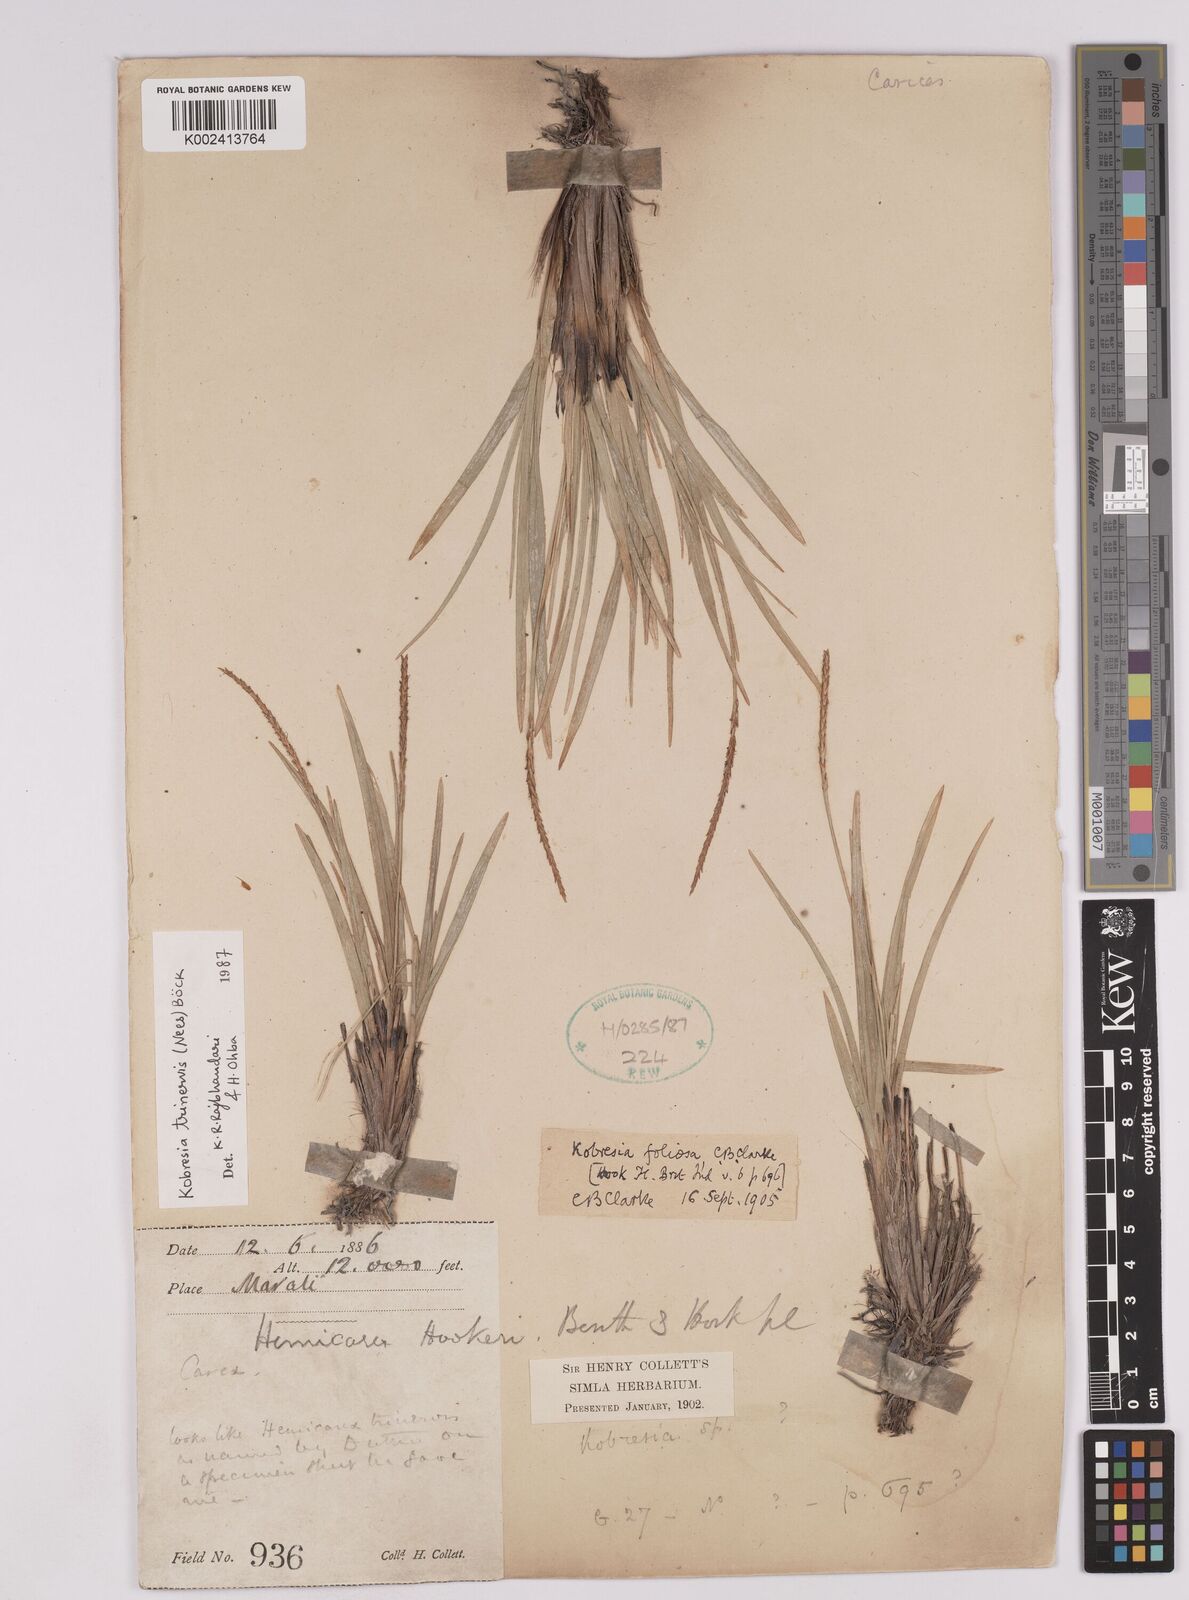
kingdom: Plantae
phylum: Tracheophyta
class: Liliopsida
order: Poales
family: Cyperaceae
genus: Carex
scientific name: Carex esenbeckii
